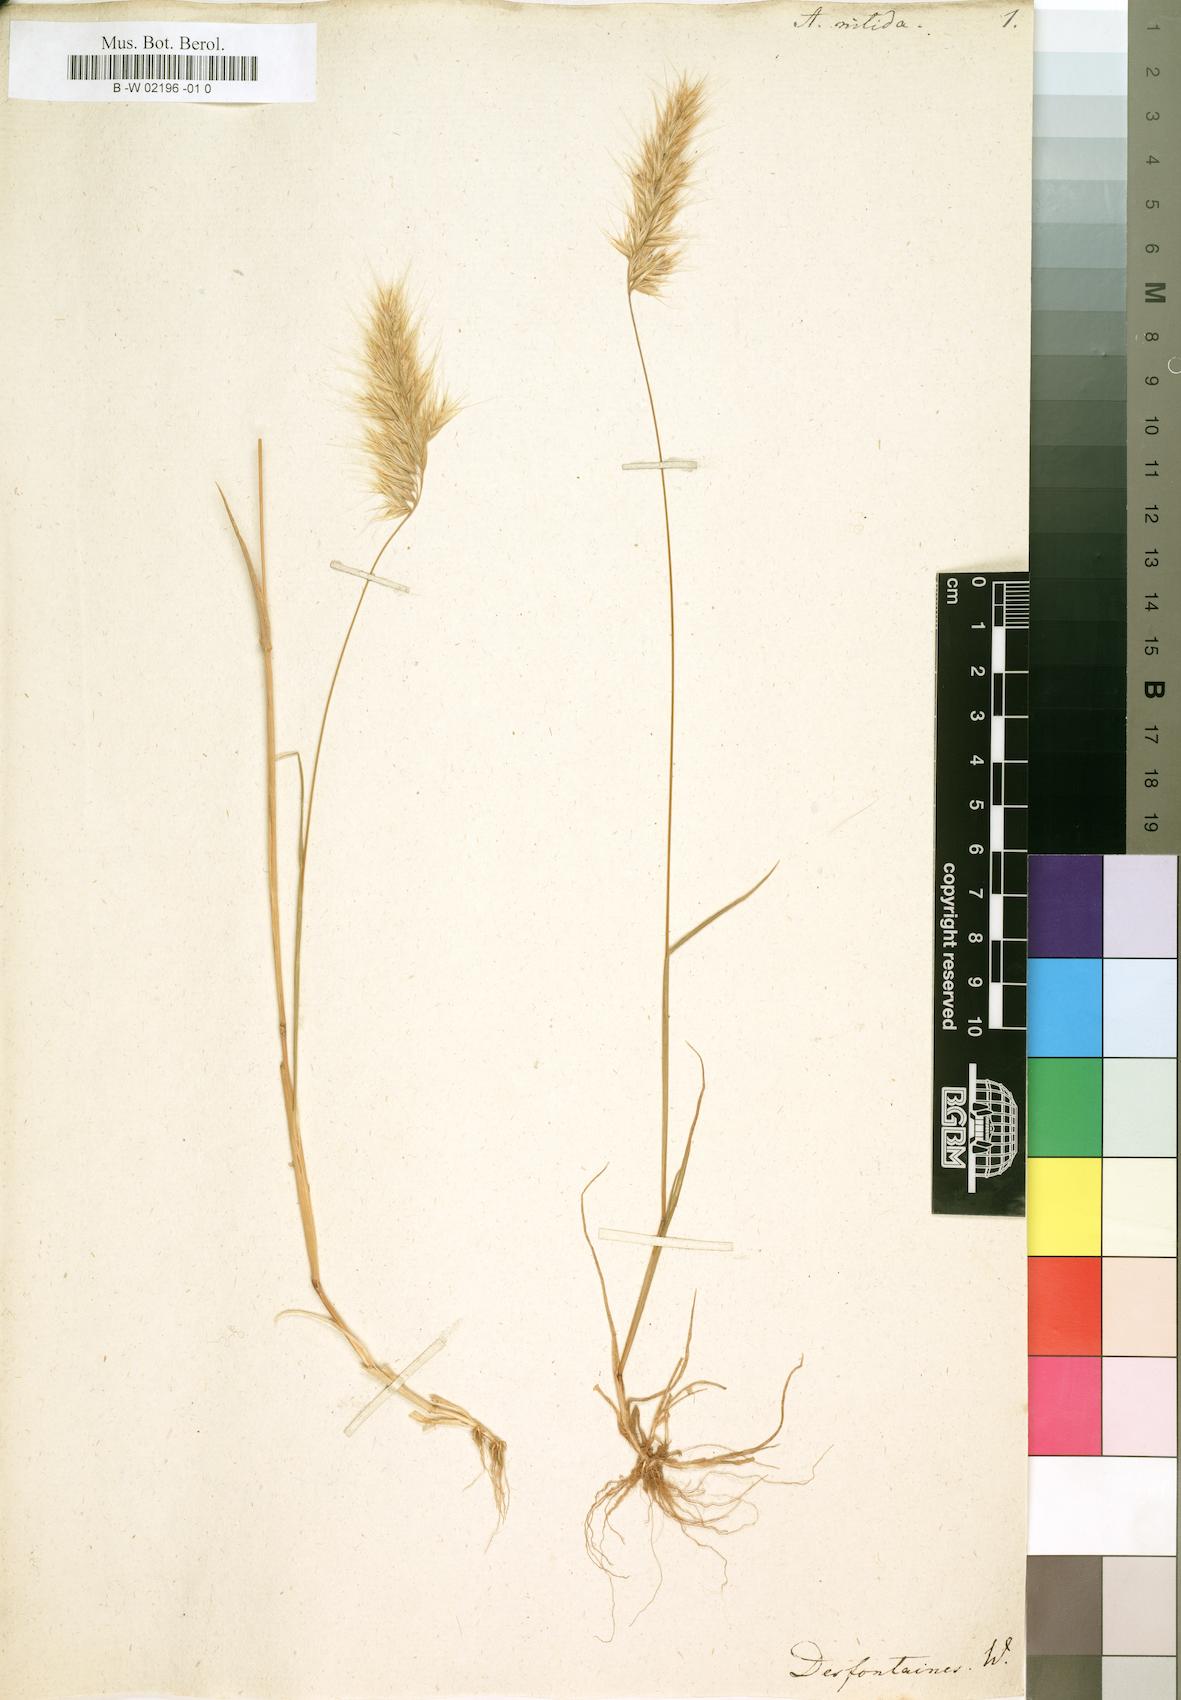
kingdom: Plantae
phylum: Tracheophyta
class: Liliopsida
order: Poales
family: Poaceae
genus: Trisetaria
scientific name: Trisetaria nitida
